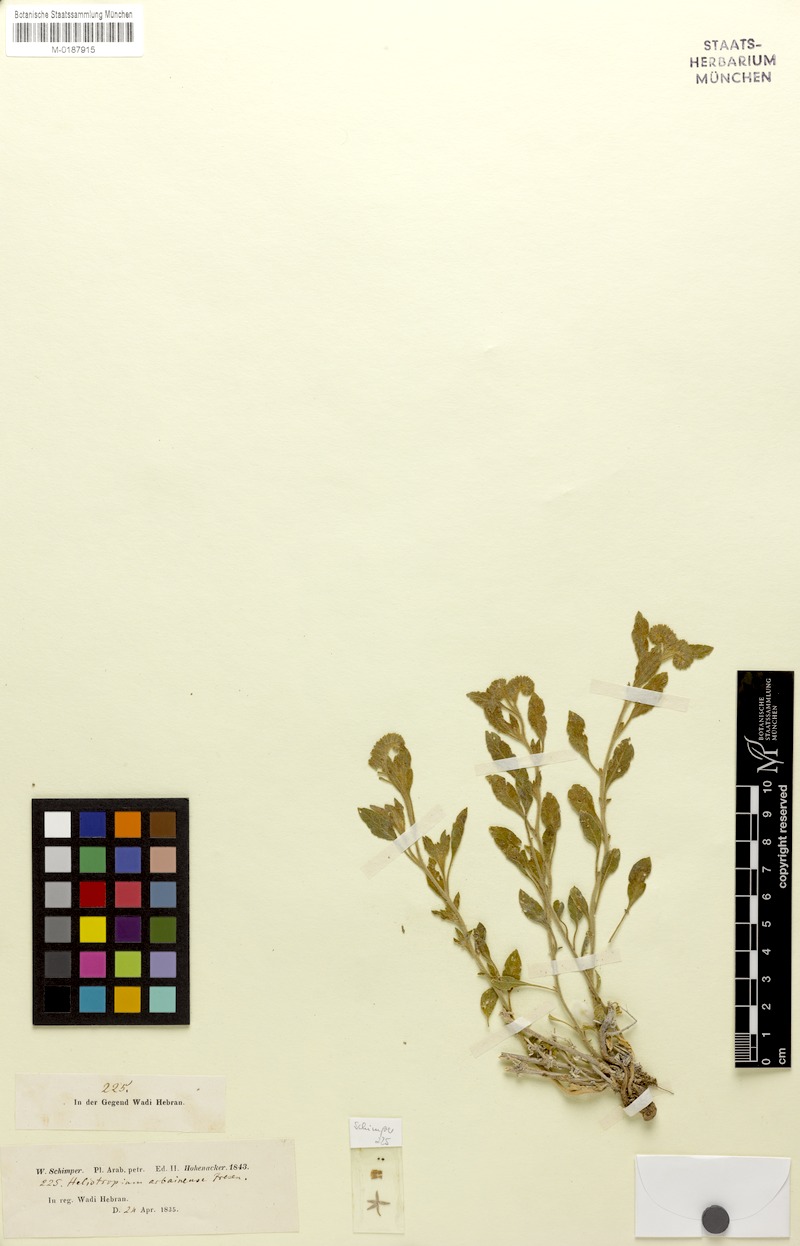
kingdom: Plantae
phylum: Tracheophyta
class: Magnoliopsida
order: Boraginales
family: Heliotropiaceae
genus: Heliotropium
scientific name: Heliotropium arbainense
